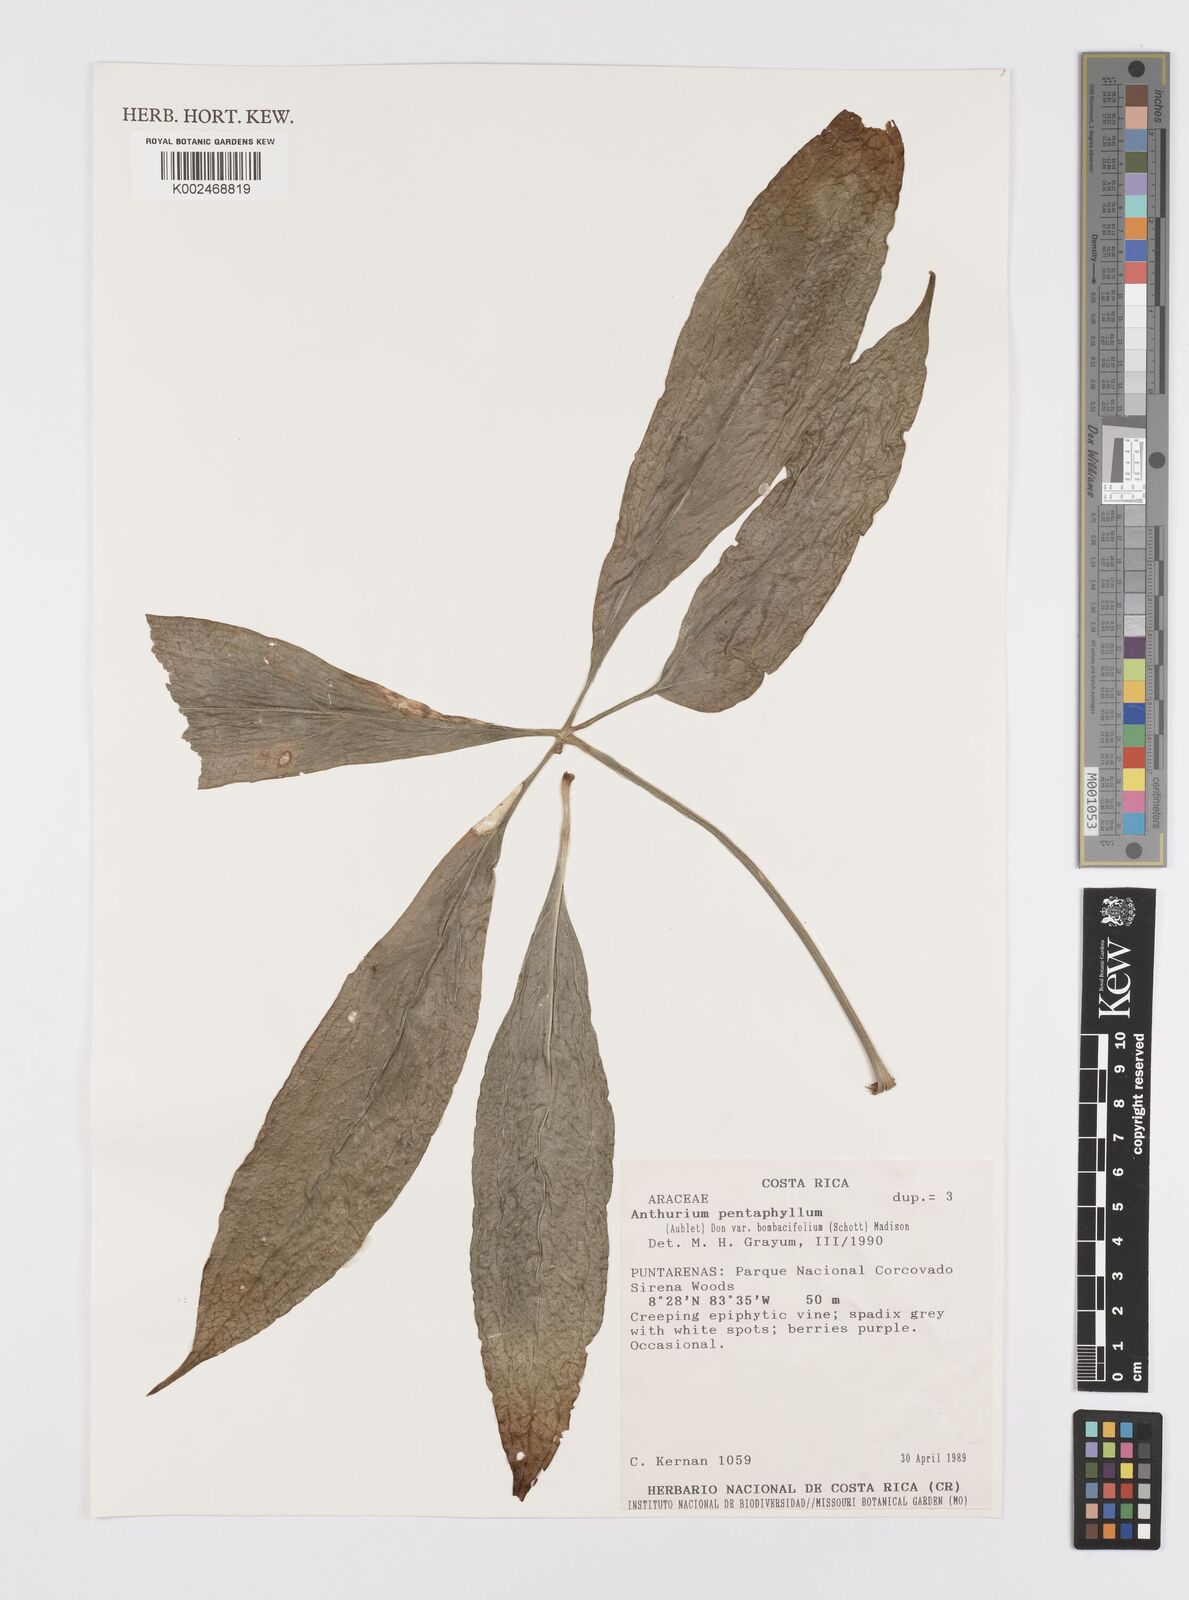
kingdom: Plantae
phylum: Tracheophyta
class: Liliopsida
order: Alismatales
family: Araceae
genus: Anthurium
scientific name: Anthurium pentaphyllum
